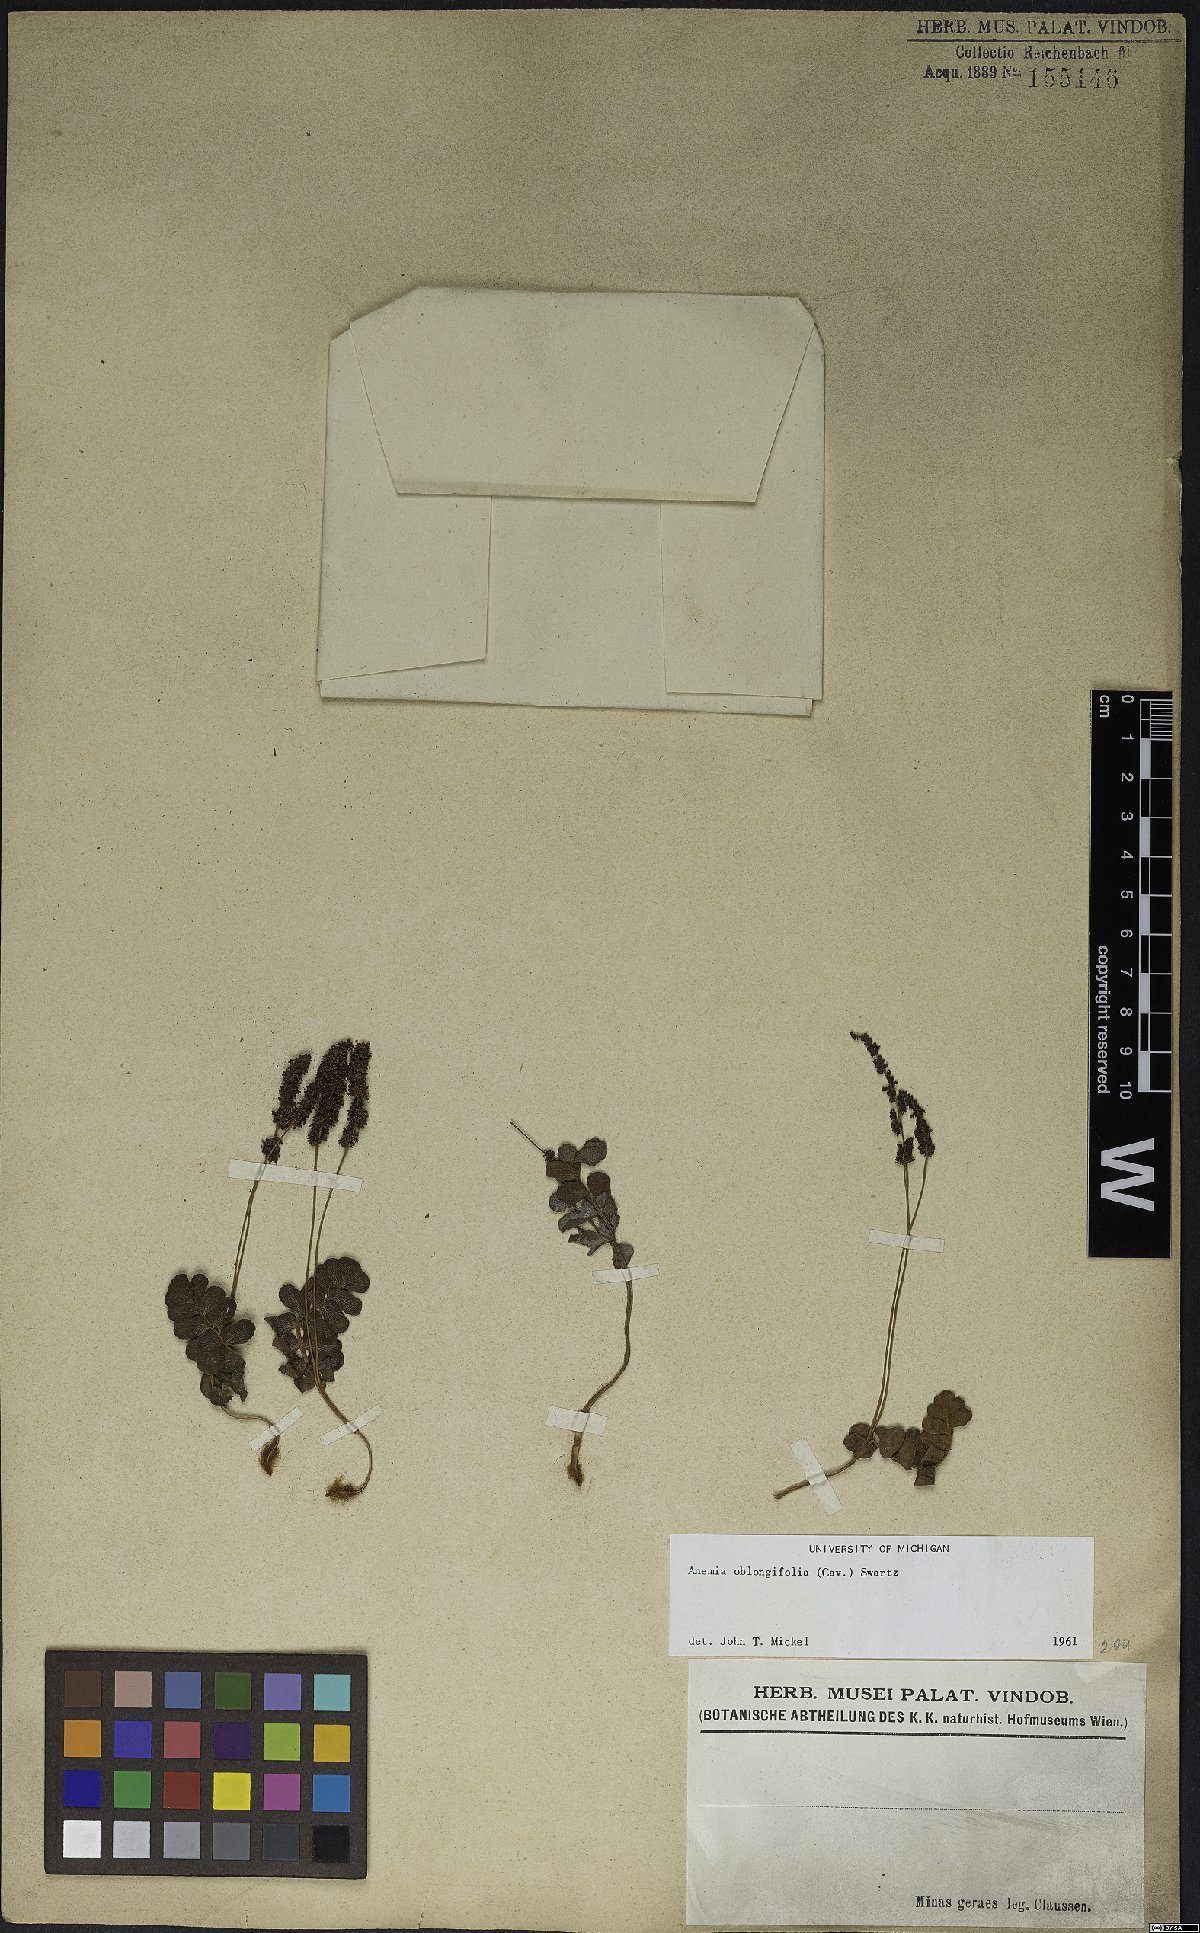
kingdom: Plantae
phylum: Tracheophyta
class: Polypodiopsida
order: Schizaeales
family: Anemiaceae
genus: Anemia
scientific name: Anemia oblongifolia
